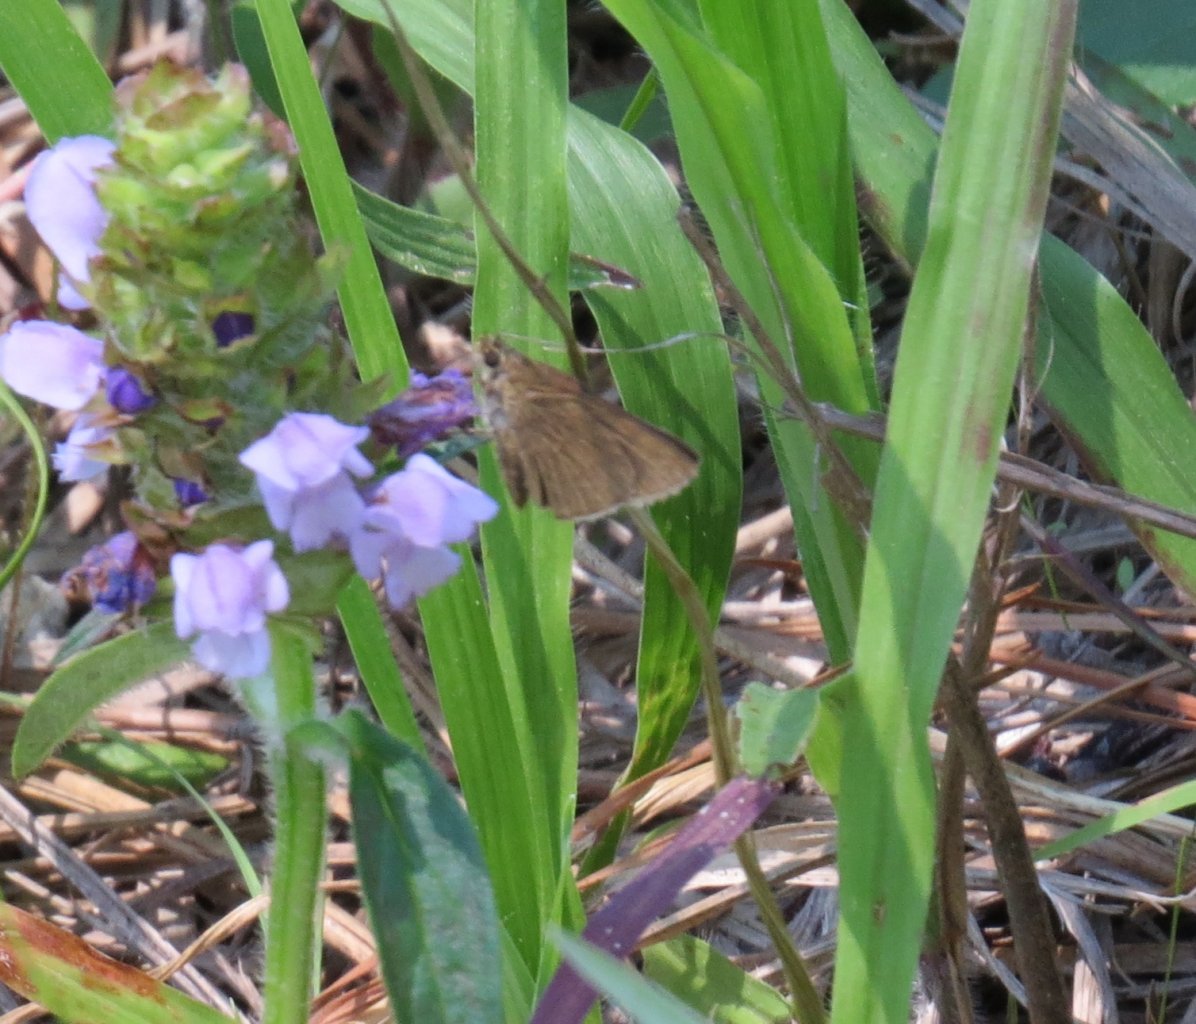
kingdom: Animalia
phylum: Arthropoda
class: Insecta
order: Lepidoptera
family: Hesperiidae
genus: Nastra
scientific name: Nastra lherminier
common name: Swarthy Skipper
